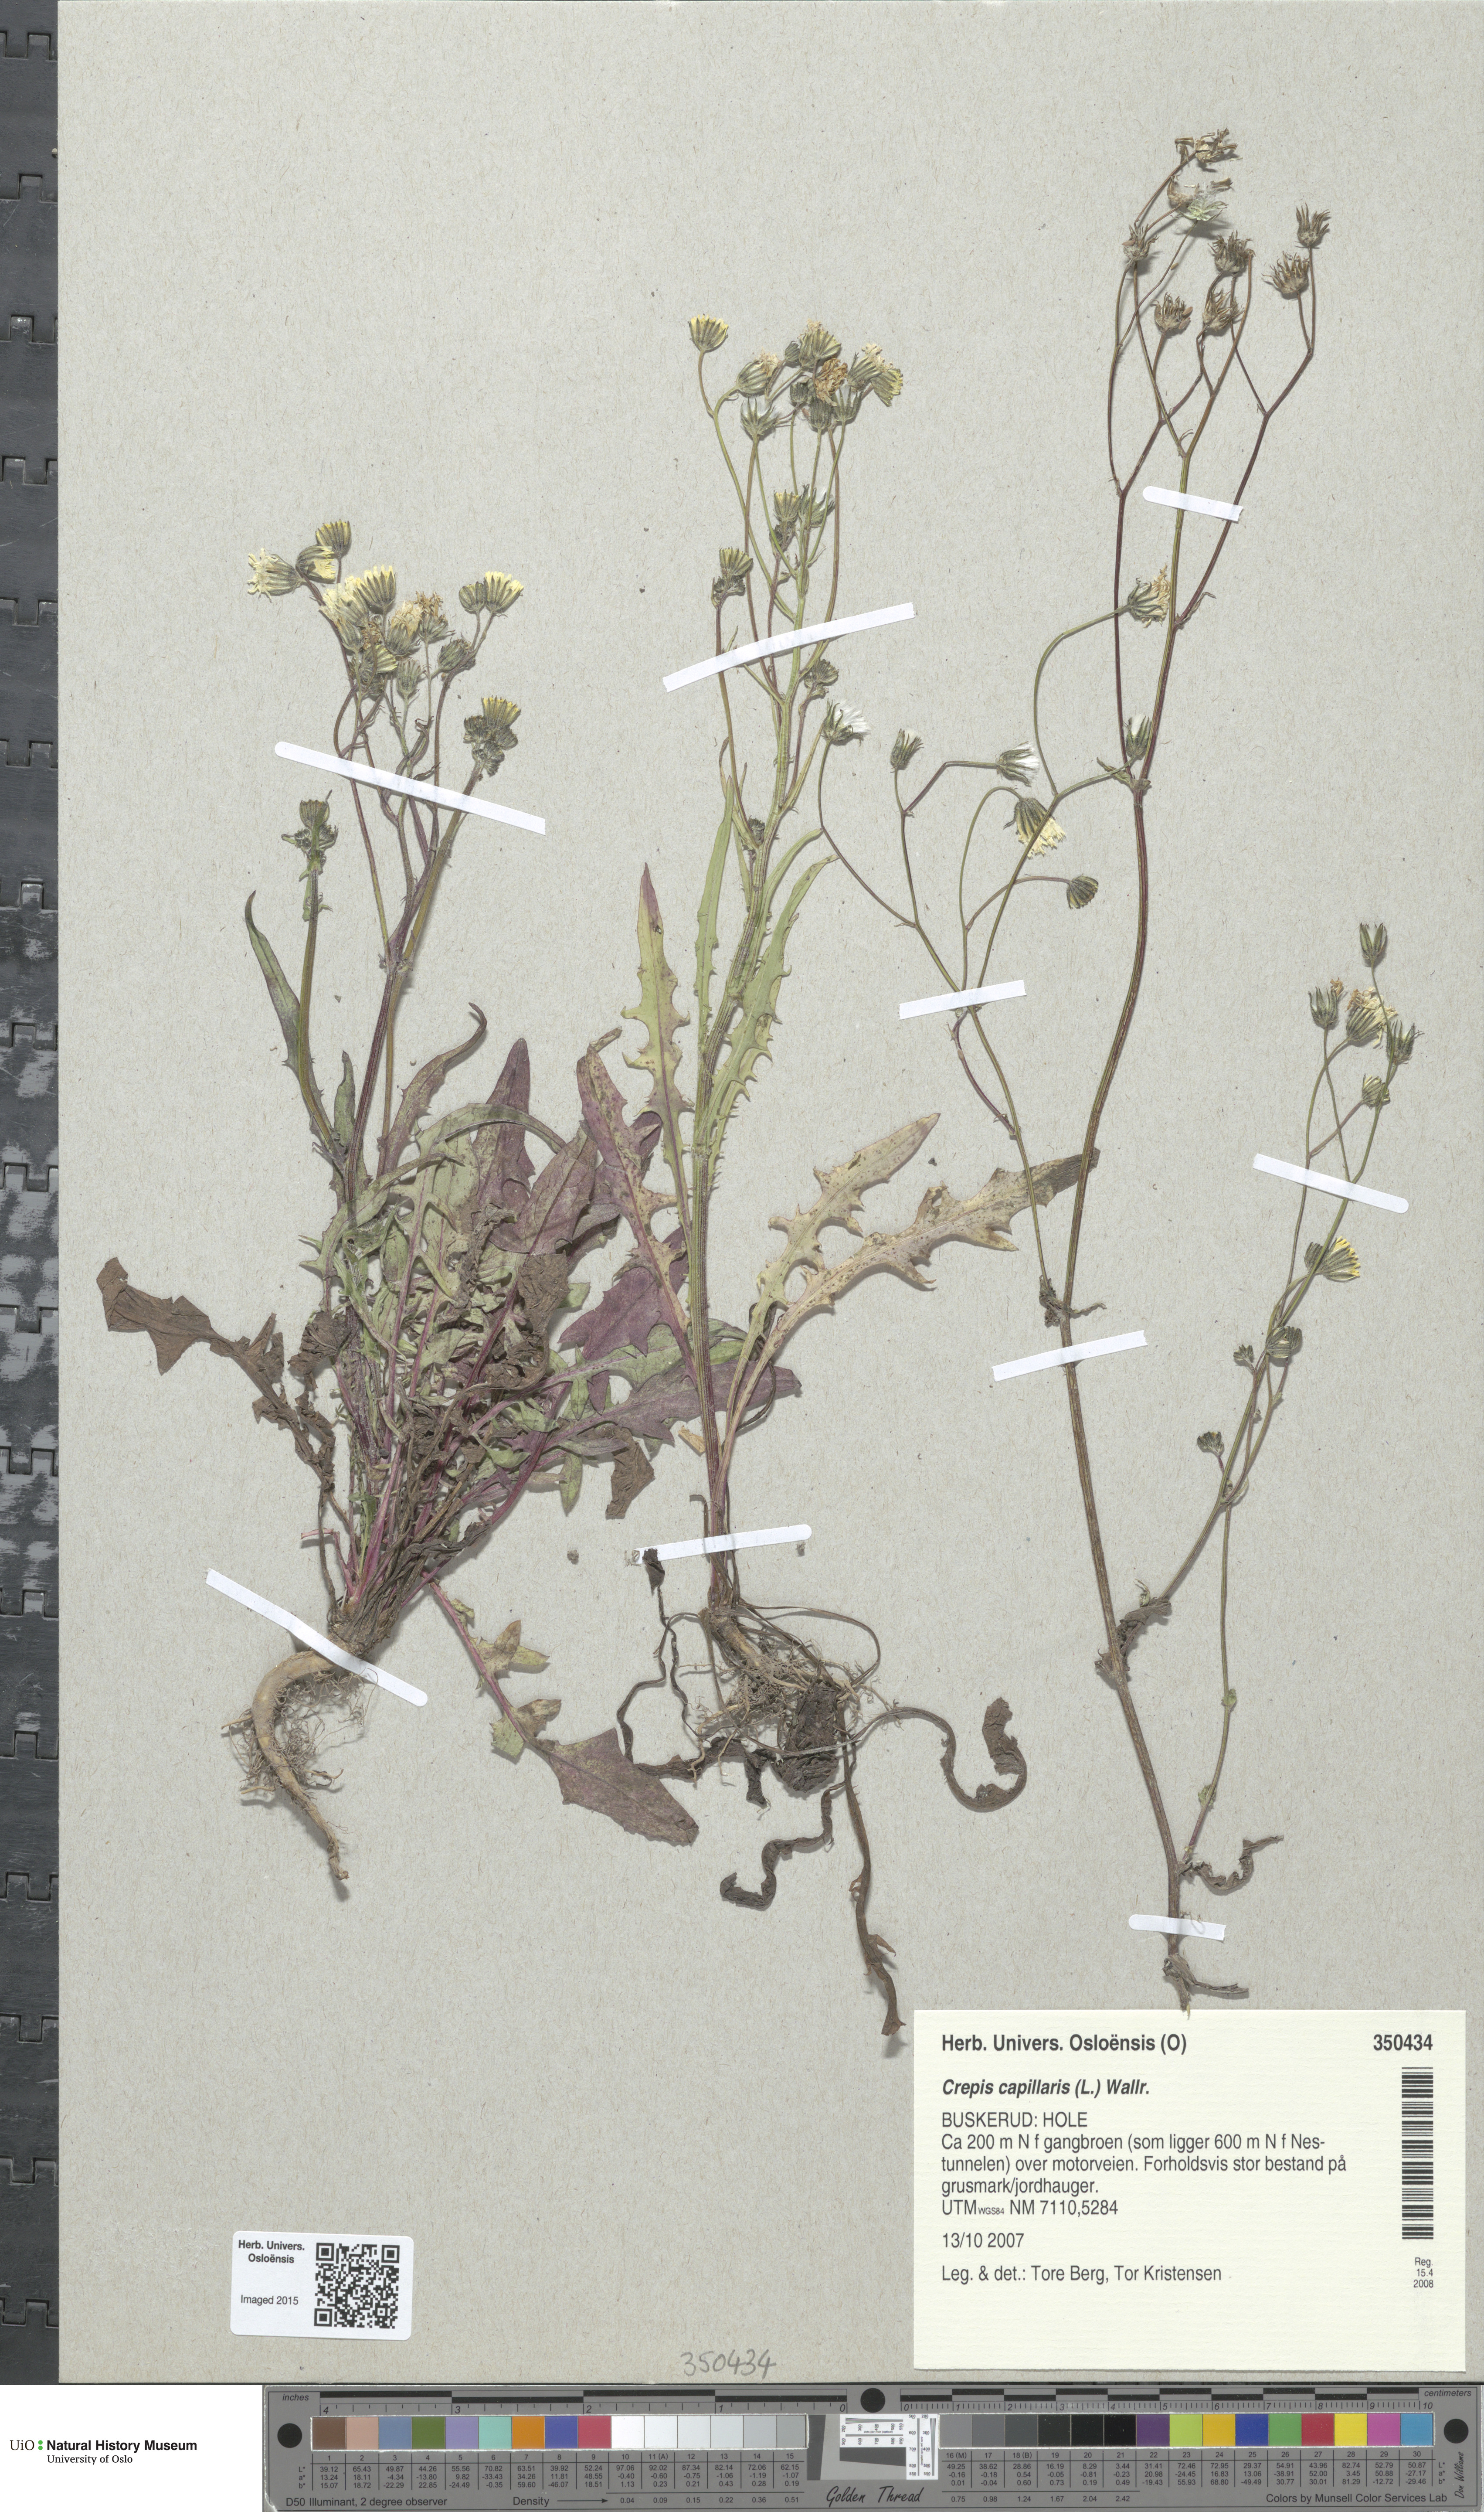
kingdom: Plantae
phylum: Tracheophyta
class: Magnoliopsida
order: Asterales
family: Asteraceae
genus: Crepis
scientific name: Crepis capillaris
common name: Smooth hawksbeard
